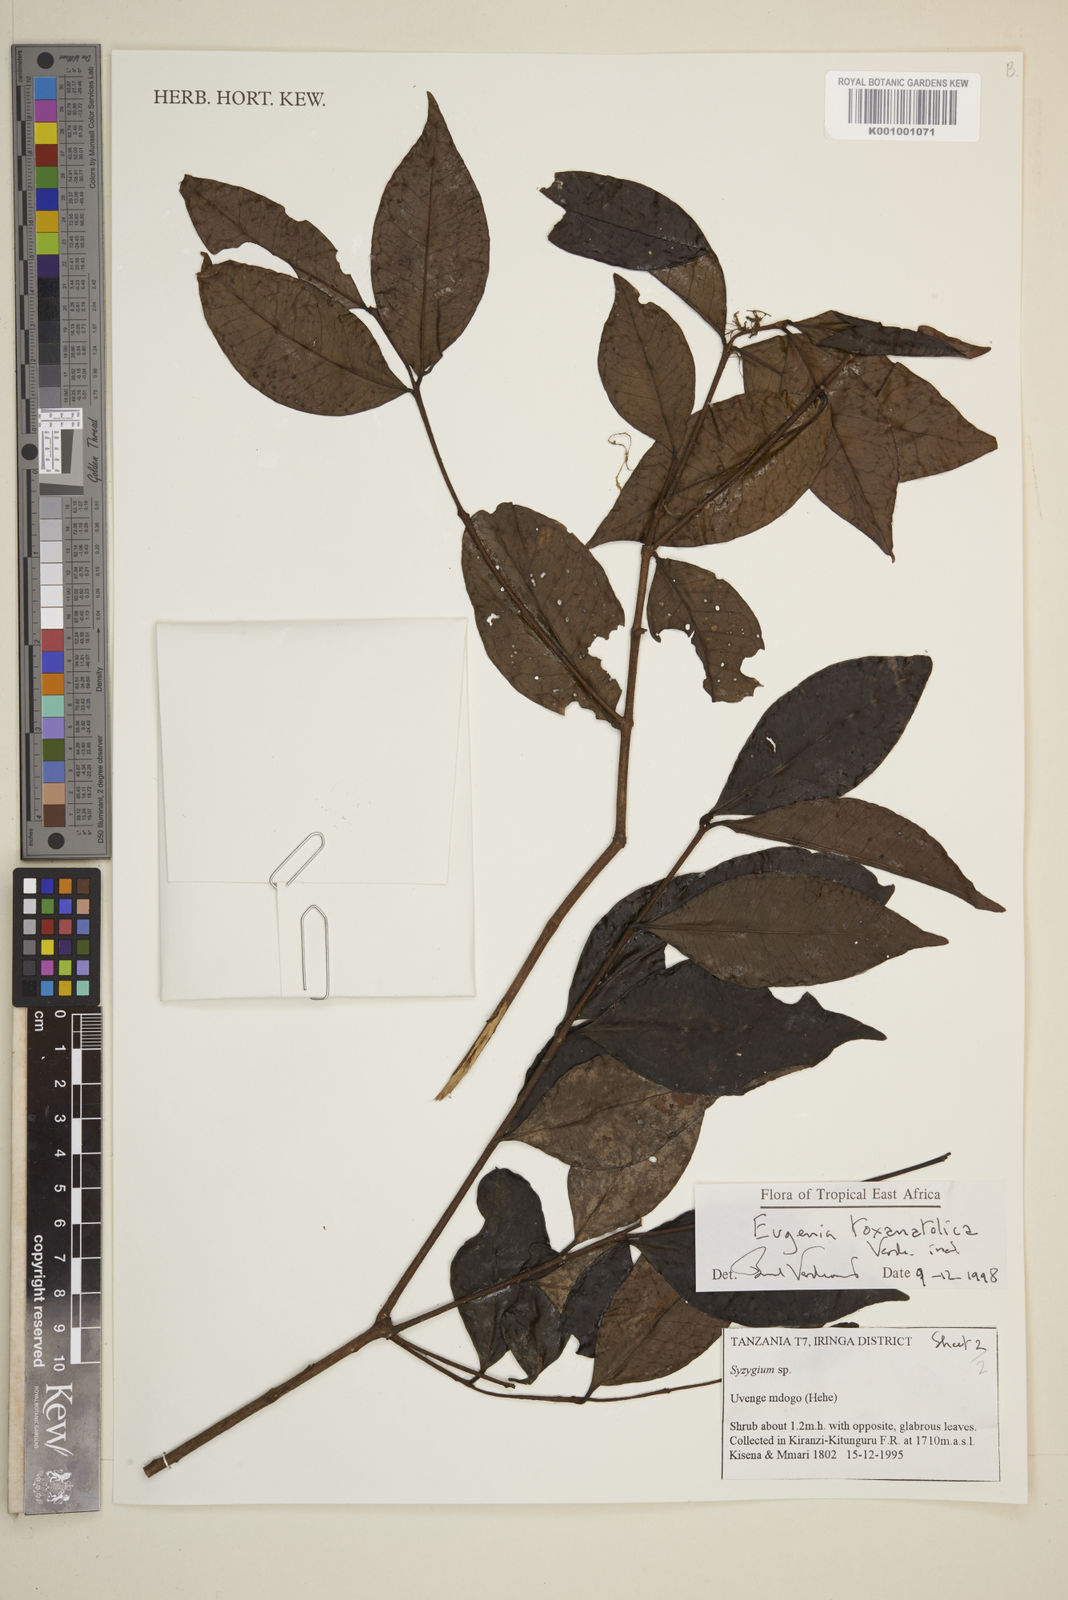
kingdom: Plantae
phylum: Tracheophyta
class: Magnoliopsida
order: Myrtales
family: Myrtaceae
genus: Eugenia
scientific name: Eugenia toxanatolica
